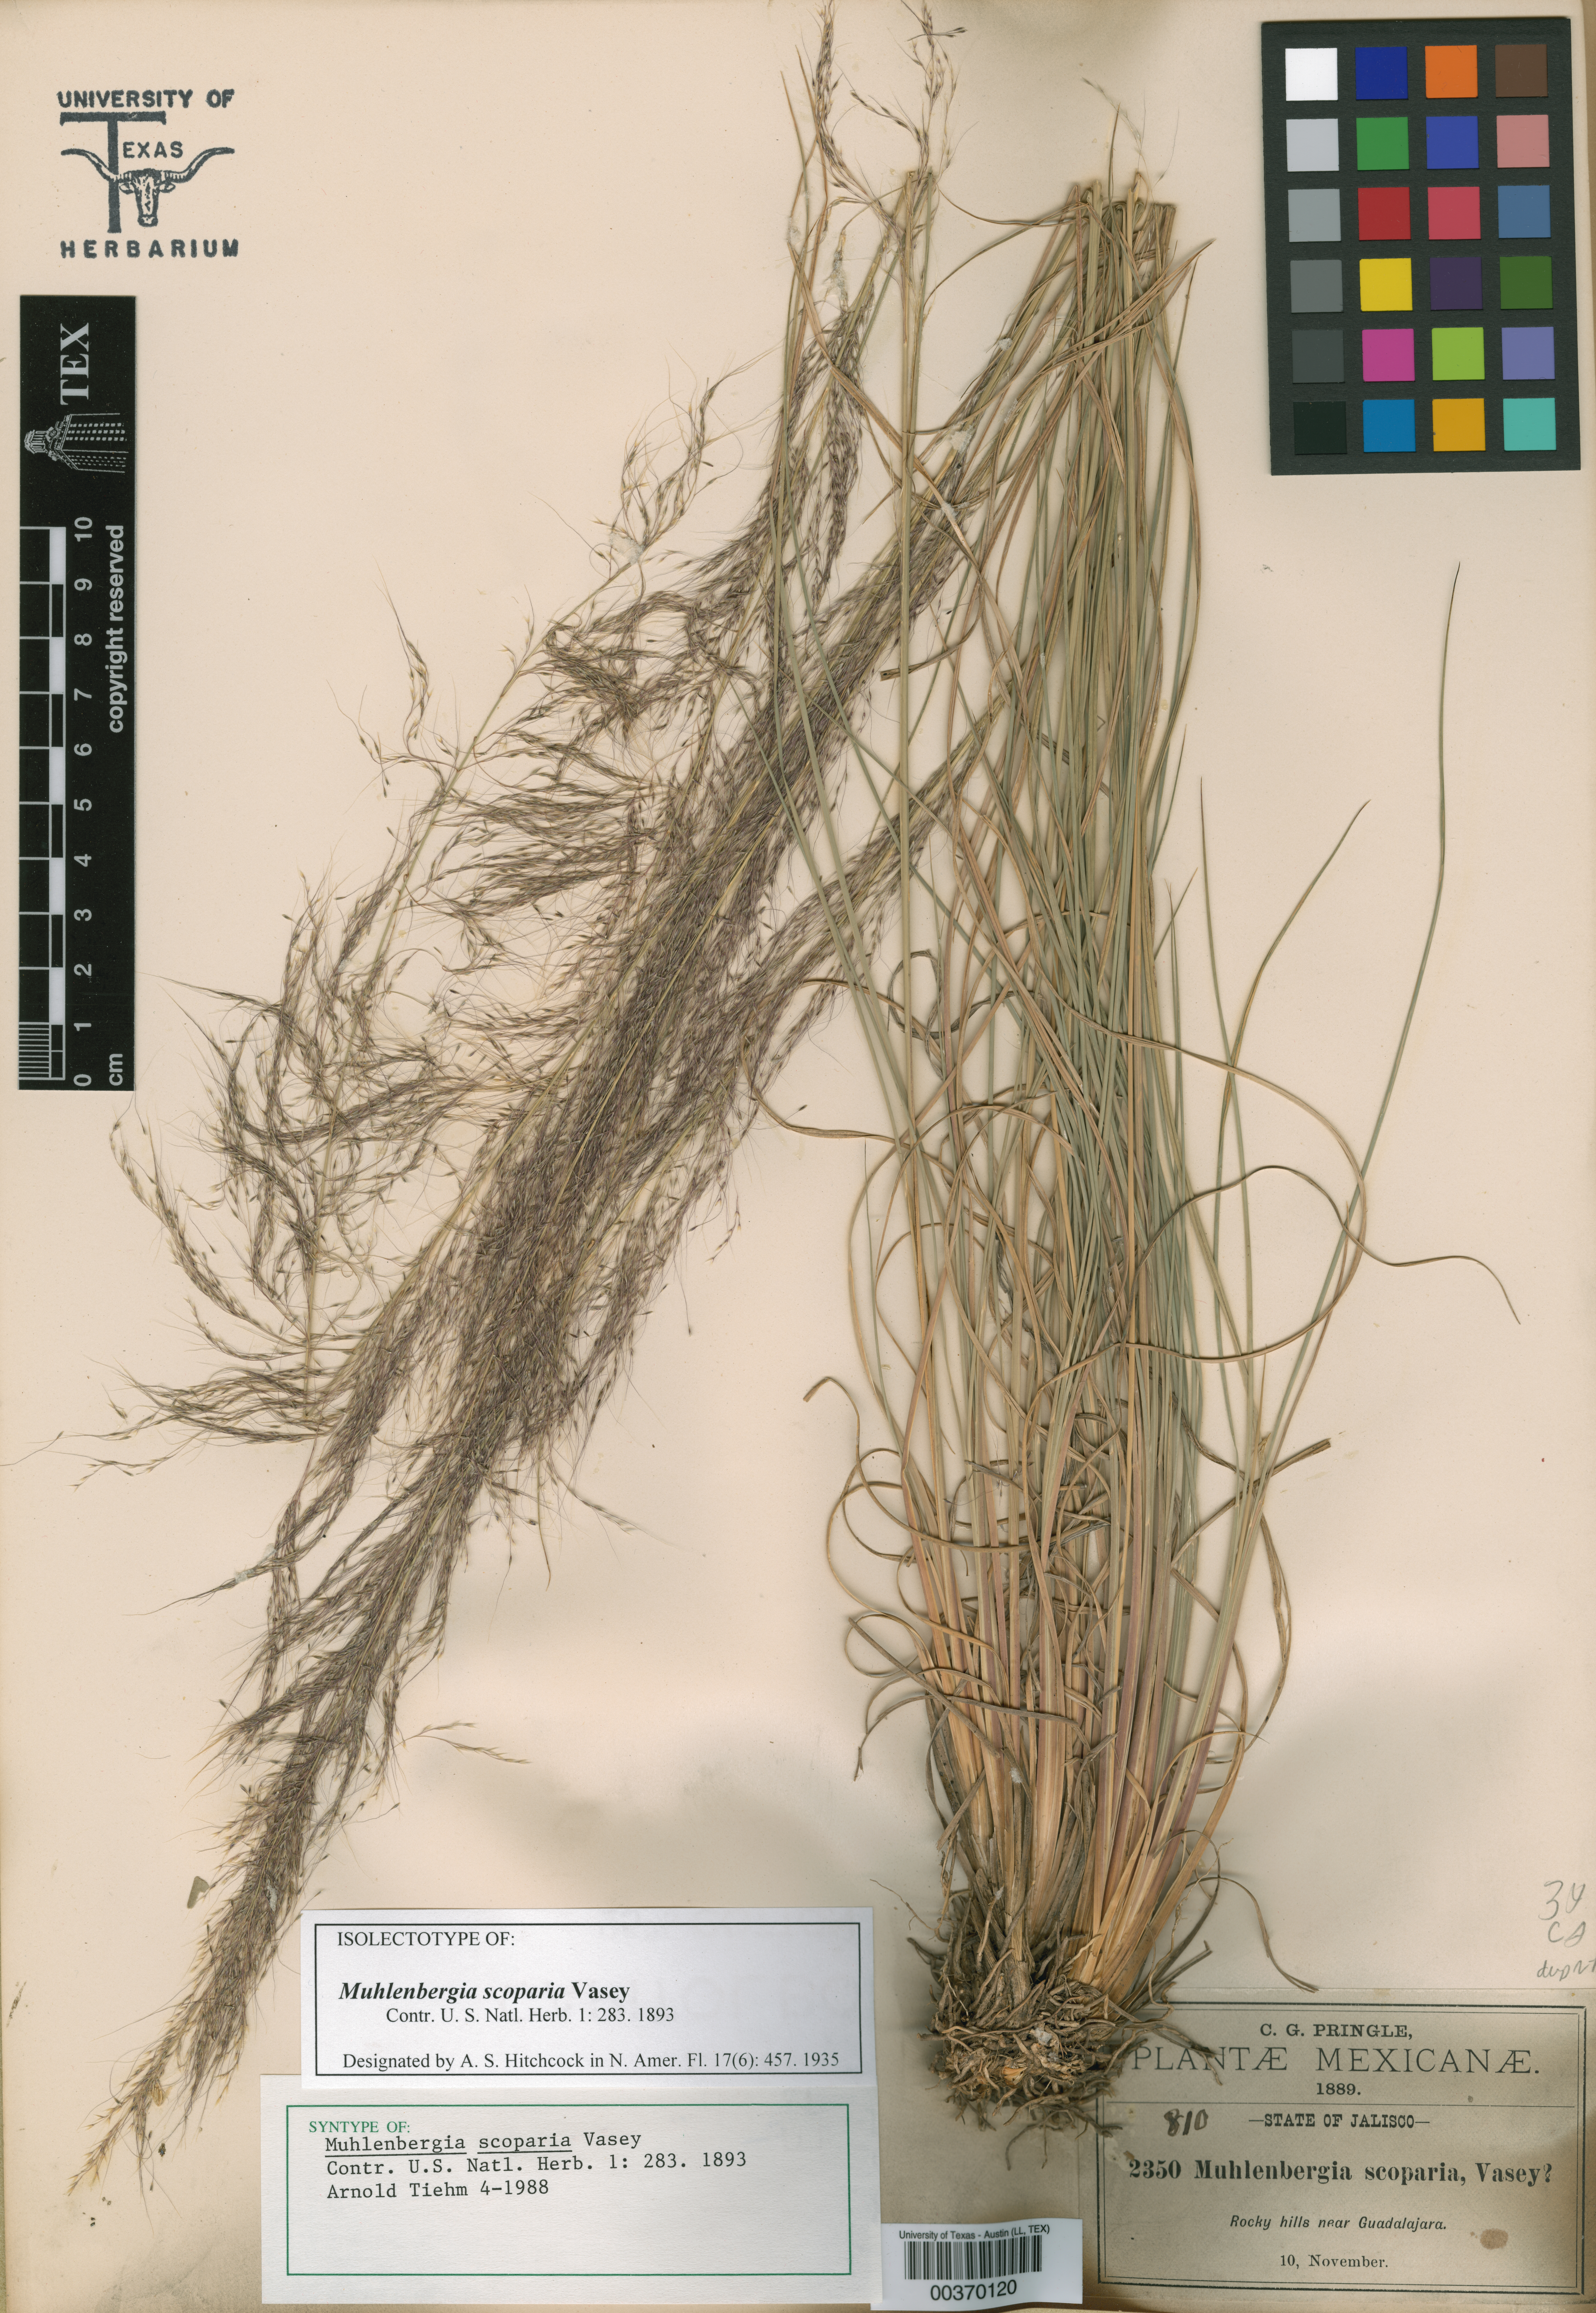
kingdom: Plantae
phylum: Tracheophyta
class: Liliopsida
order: Poales
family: Poaceae
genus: Muhlenbergia
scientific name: Muhlenbergia scoparia
